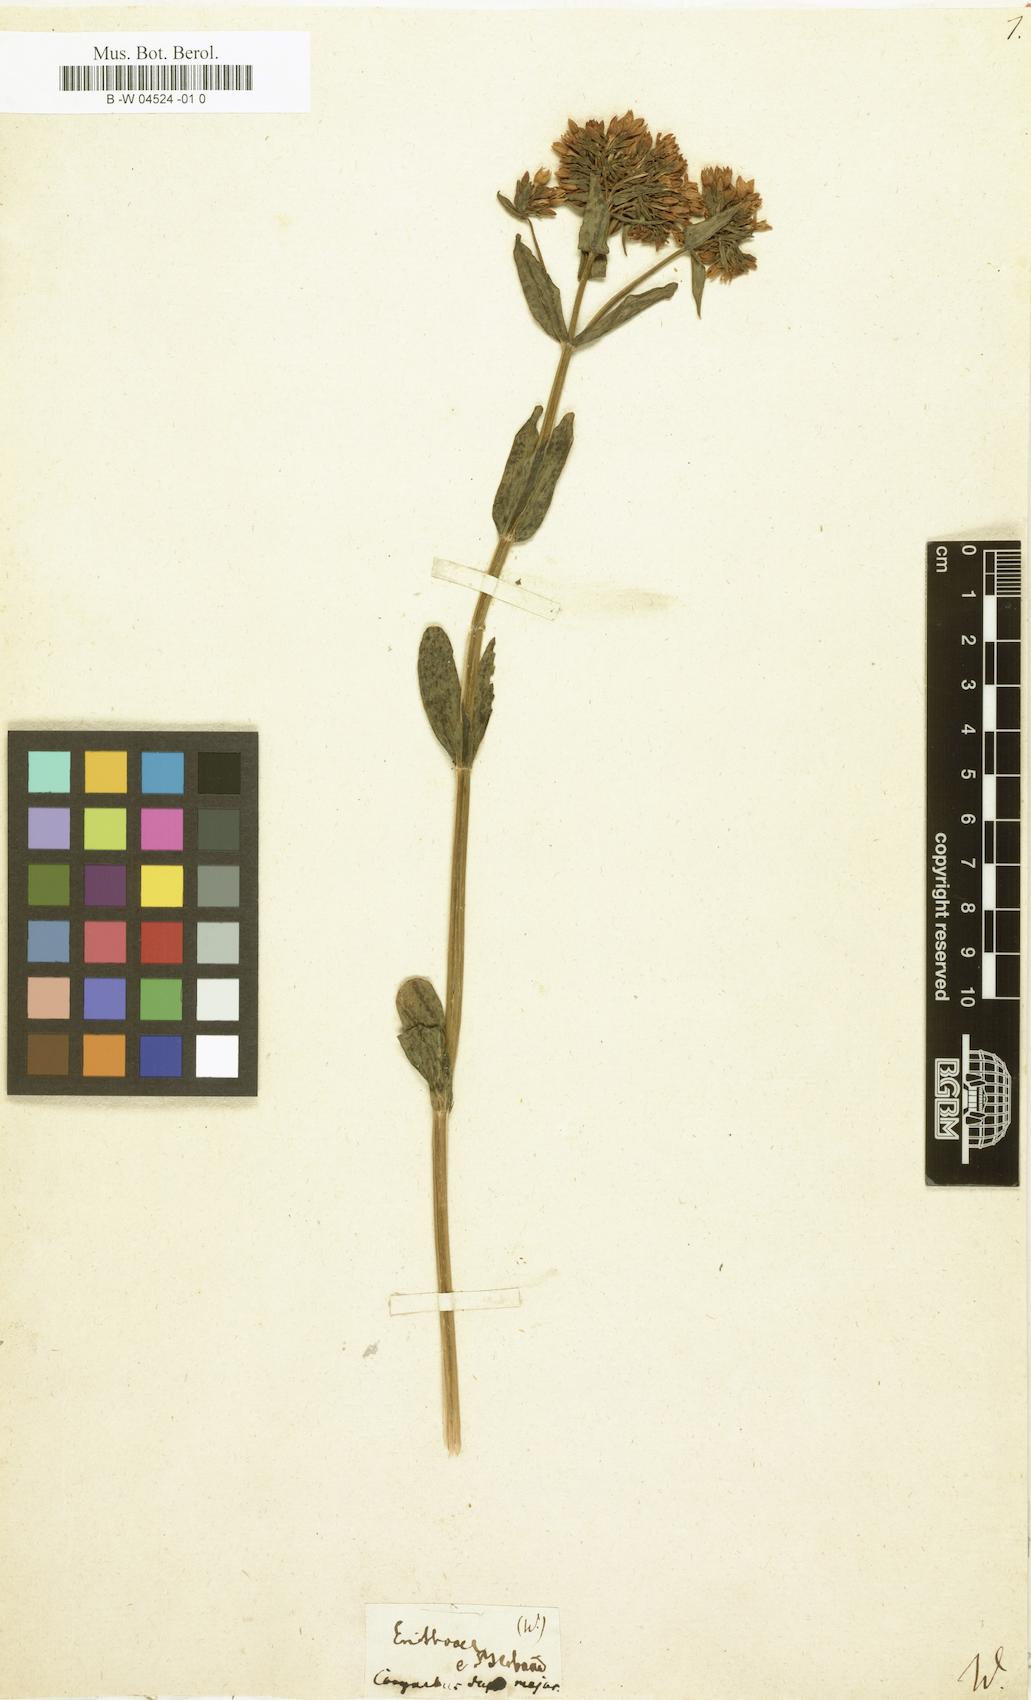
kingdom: Plantae
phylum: Tracheophyta
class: Magnoliopsida
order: Gentianales
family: Gentianaceae
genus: Centaurium
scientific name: Centaurium erythraea
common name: Common centaury
